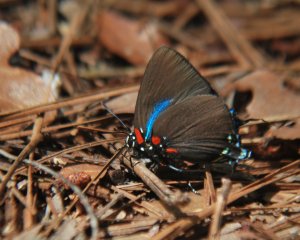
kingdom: Animalia
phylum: Arthropoda
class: Insecta
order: Lepidoptera
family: Lycaenidae
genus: Atlides
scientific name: Atlides halesus
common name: Great Purple Hairstreak
